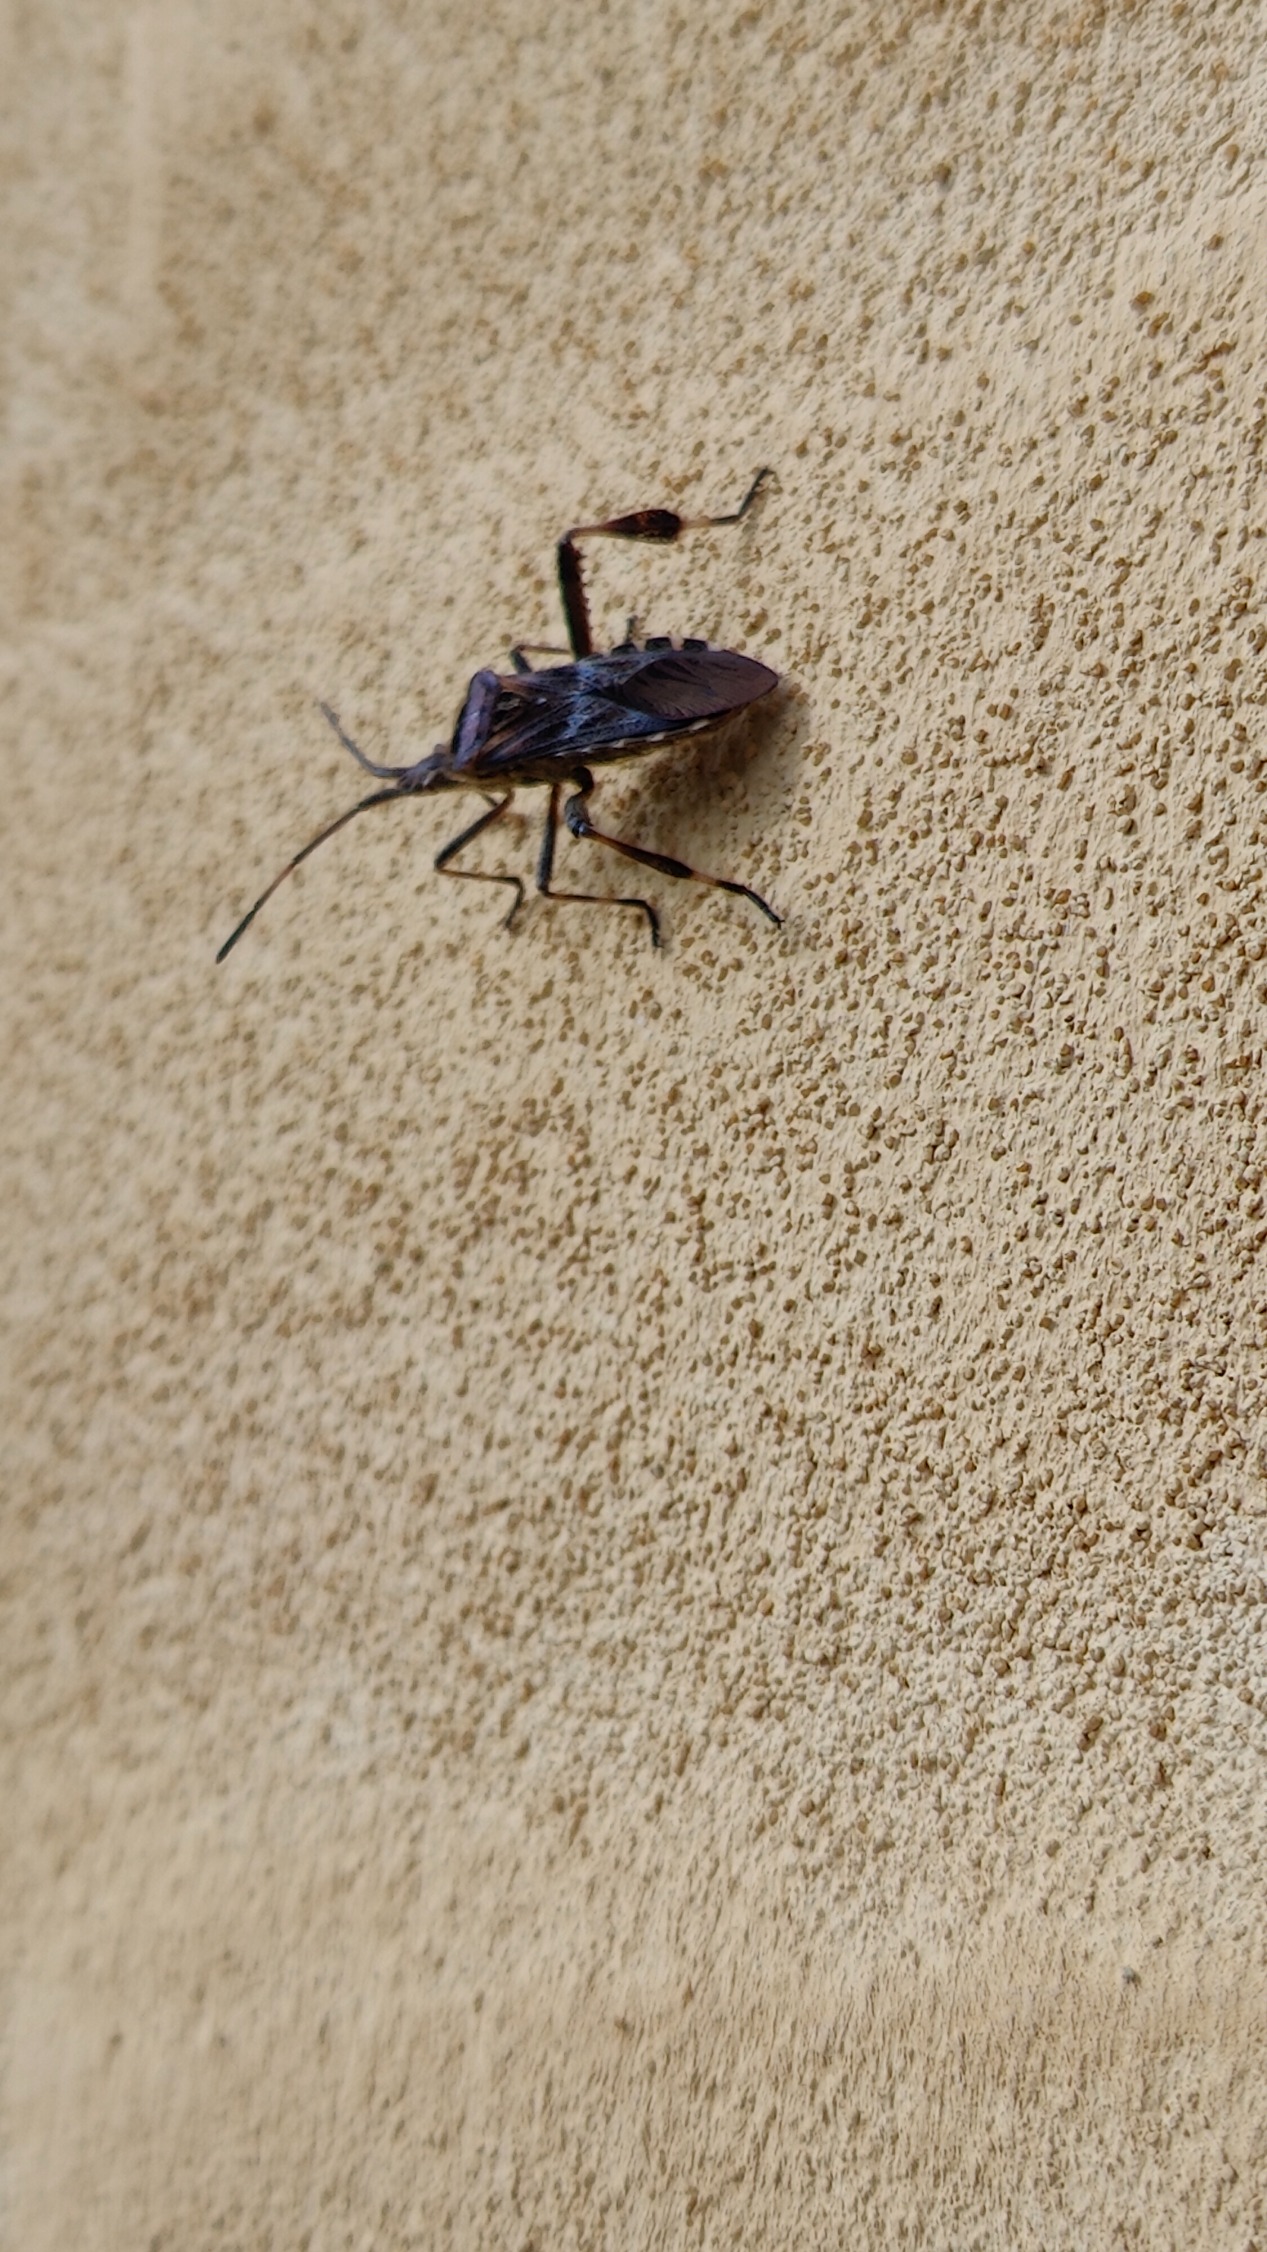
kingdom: Animalia
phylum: Arthropoda
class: Insecta
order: Hemiptera
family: Coreidae
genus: Leptoglossus
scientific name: Leptoglossus occidentalis
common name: Amerikansk fyrretæge
